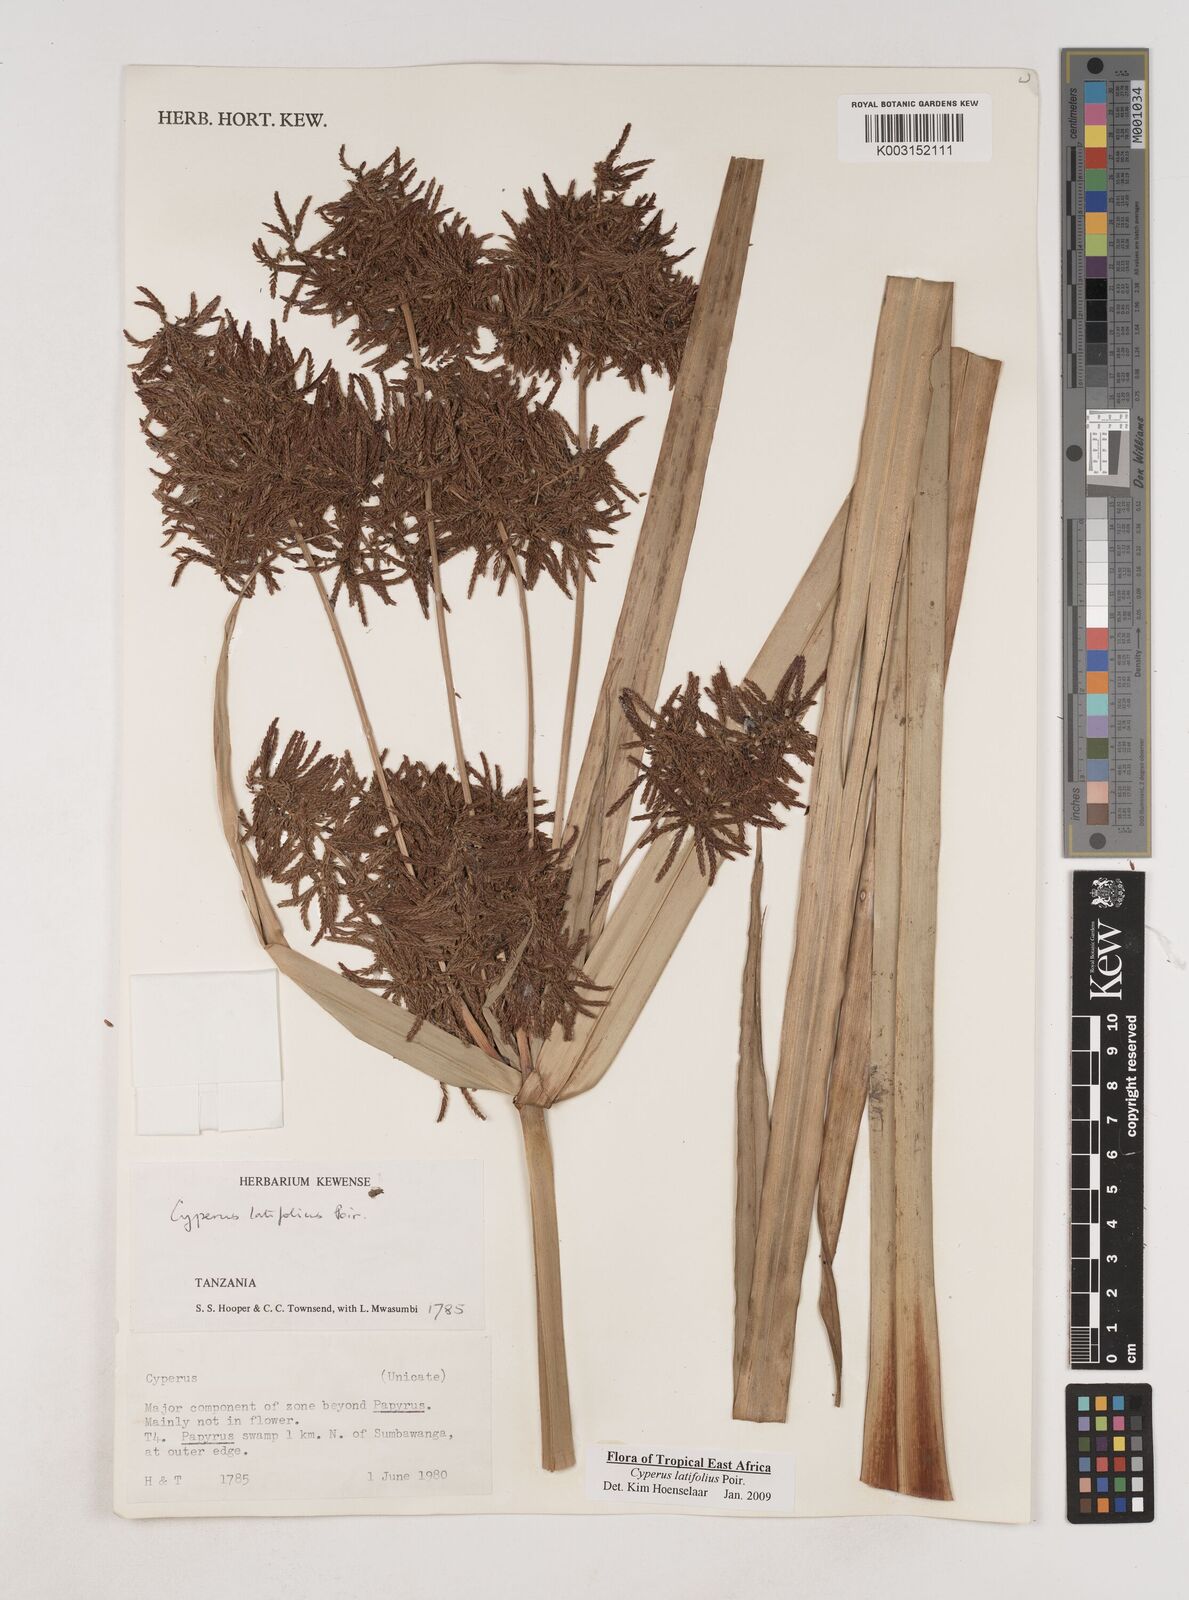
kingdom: Plantae
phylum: Tracheophyta
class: Liliopsida
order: Poales
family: Cyperaceae
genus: Cyperus
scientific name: Cyperus latifolius
